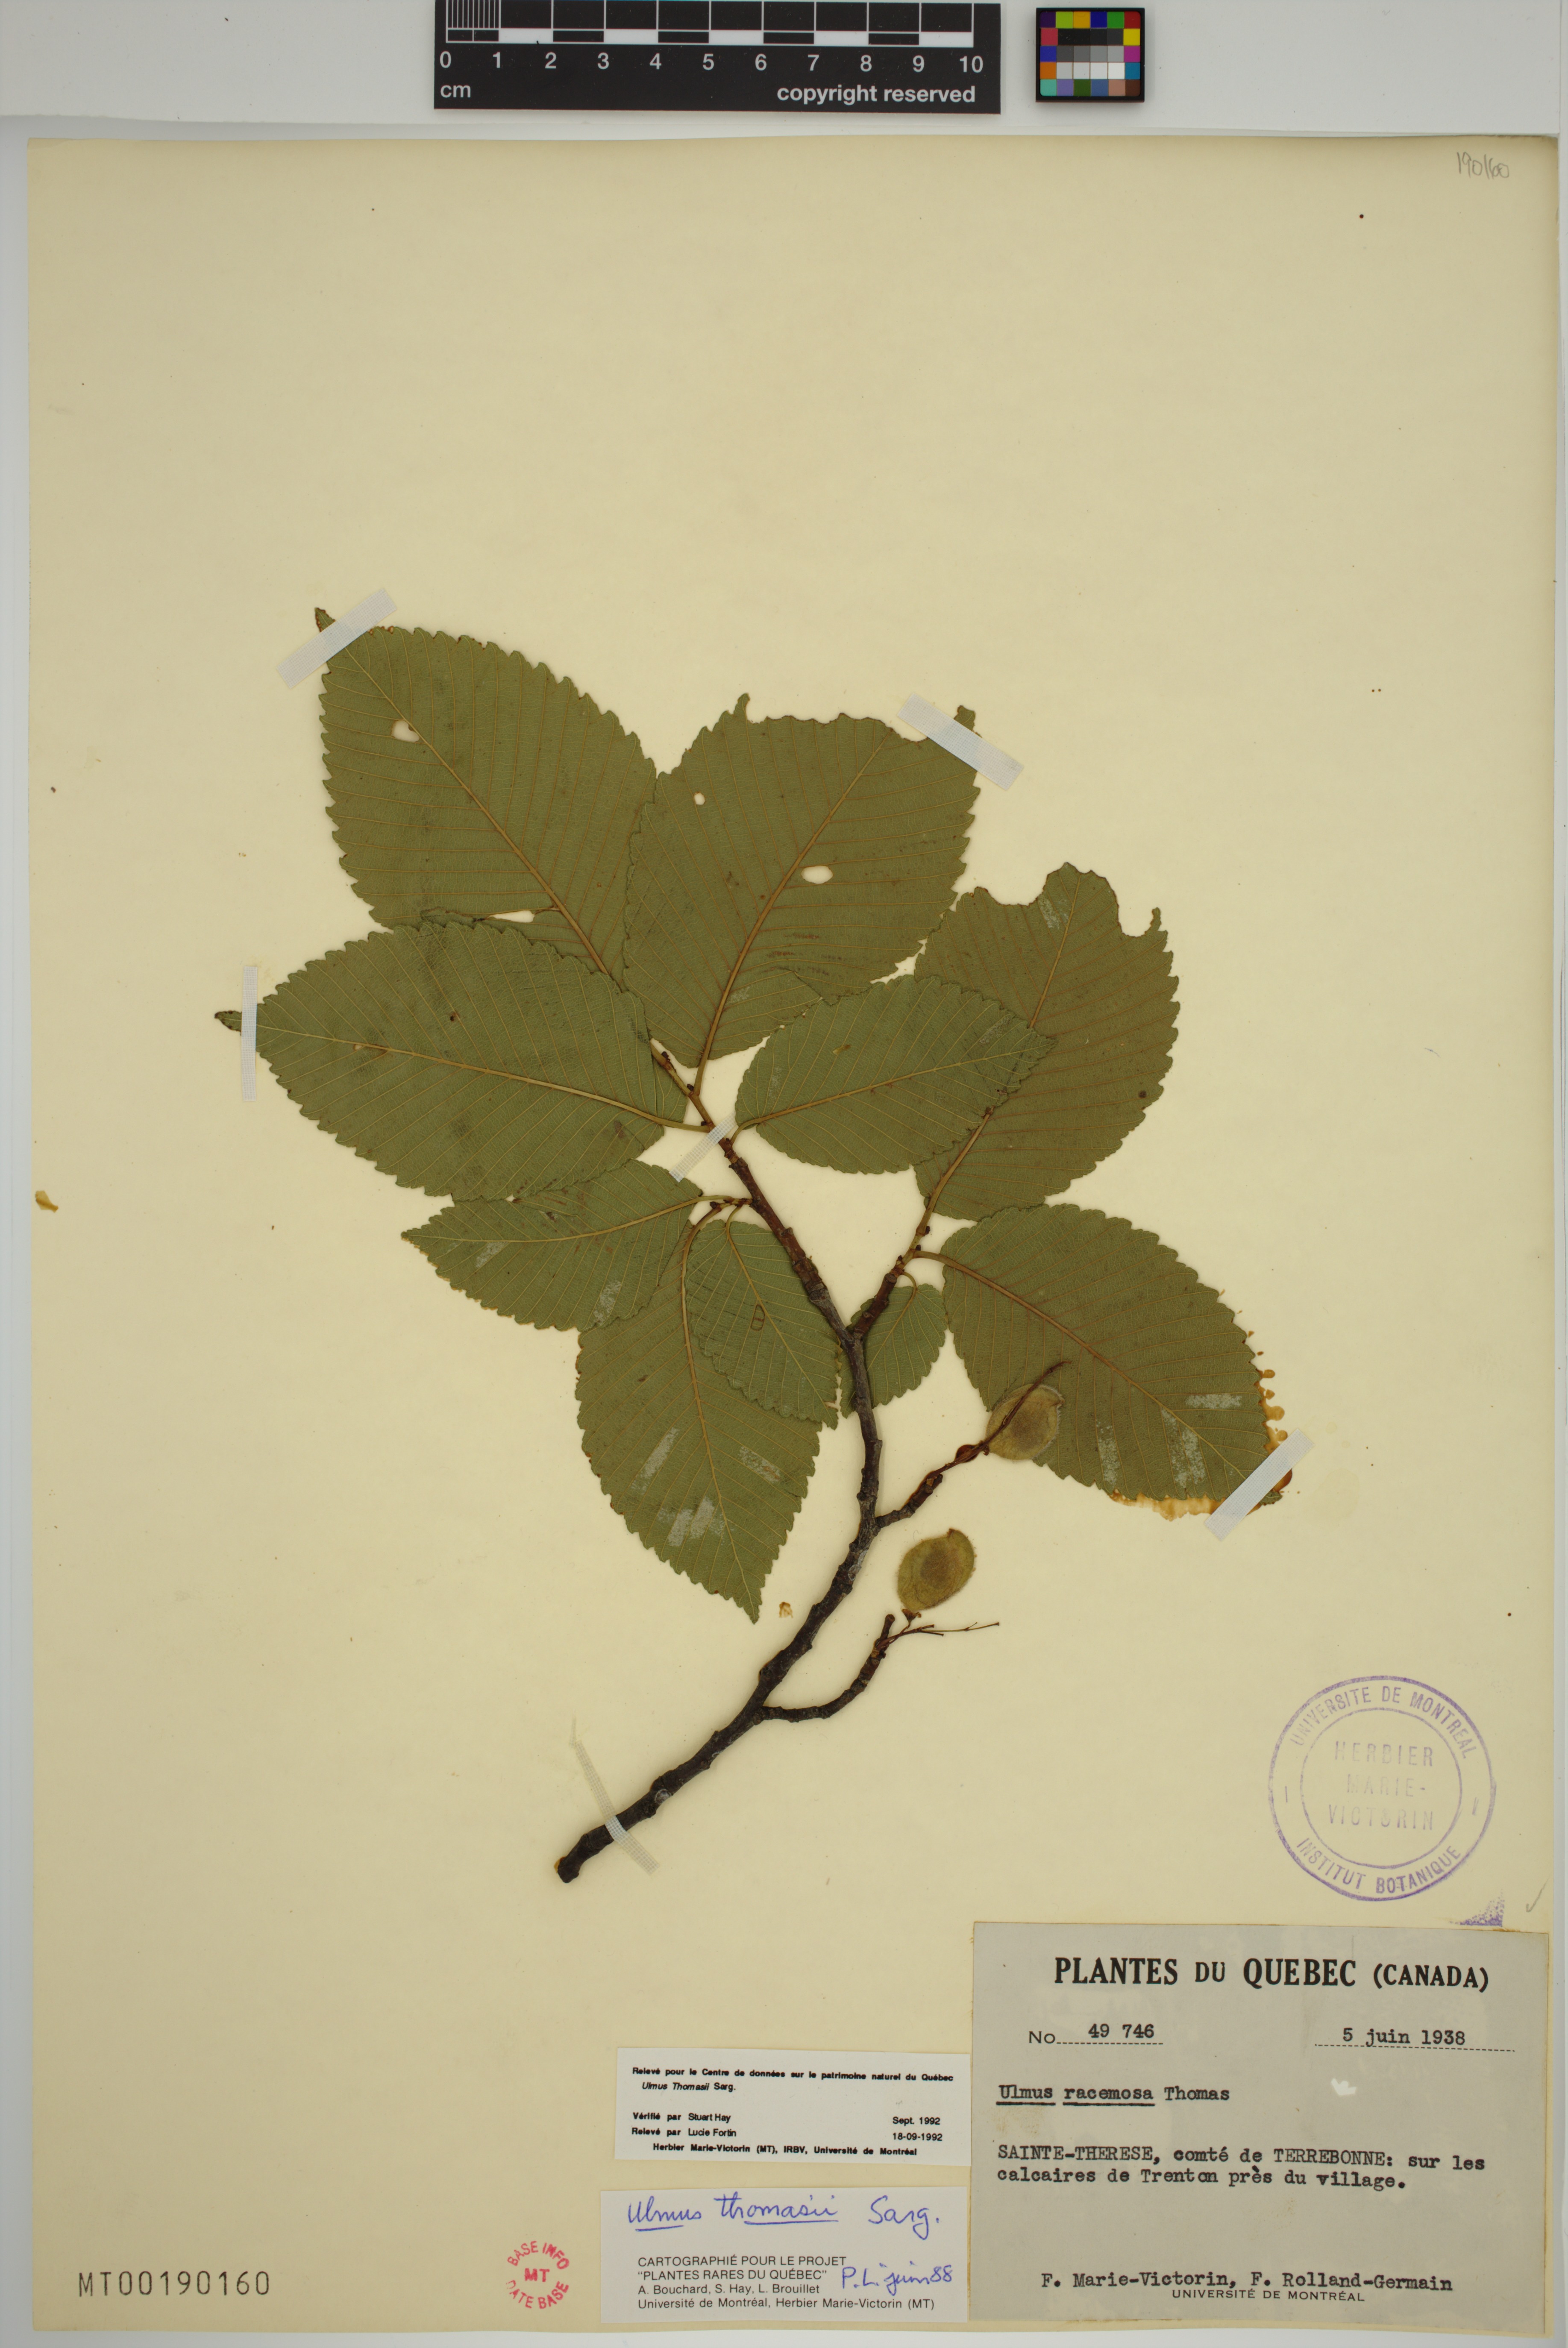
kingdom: Plantae
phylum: Tracheophyta
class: Magnoliopsida
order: Rosales
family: Ulmaceae
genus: Ulmus
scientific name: Ulmus thomasii
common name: Rock elm
